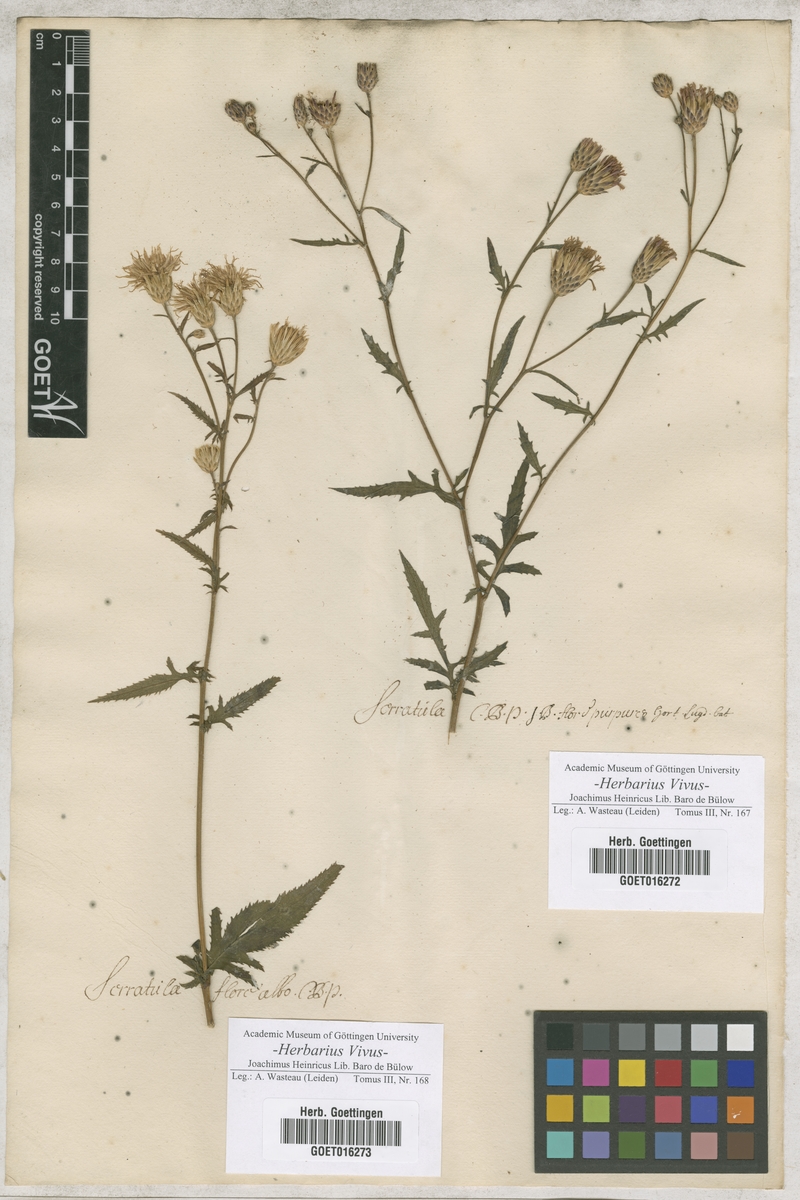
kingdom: Plantae
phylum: Tracheophyta
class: Magnoliopsida
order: Asterales
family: Asteraceae
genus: Serratula
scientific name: Serratula tinctoria
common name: Saw-wort
